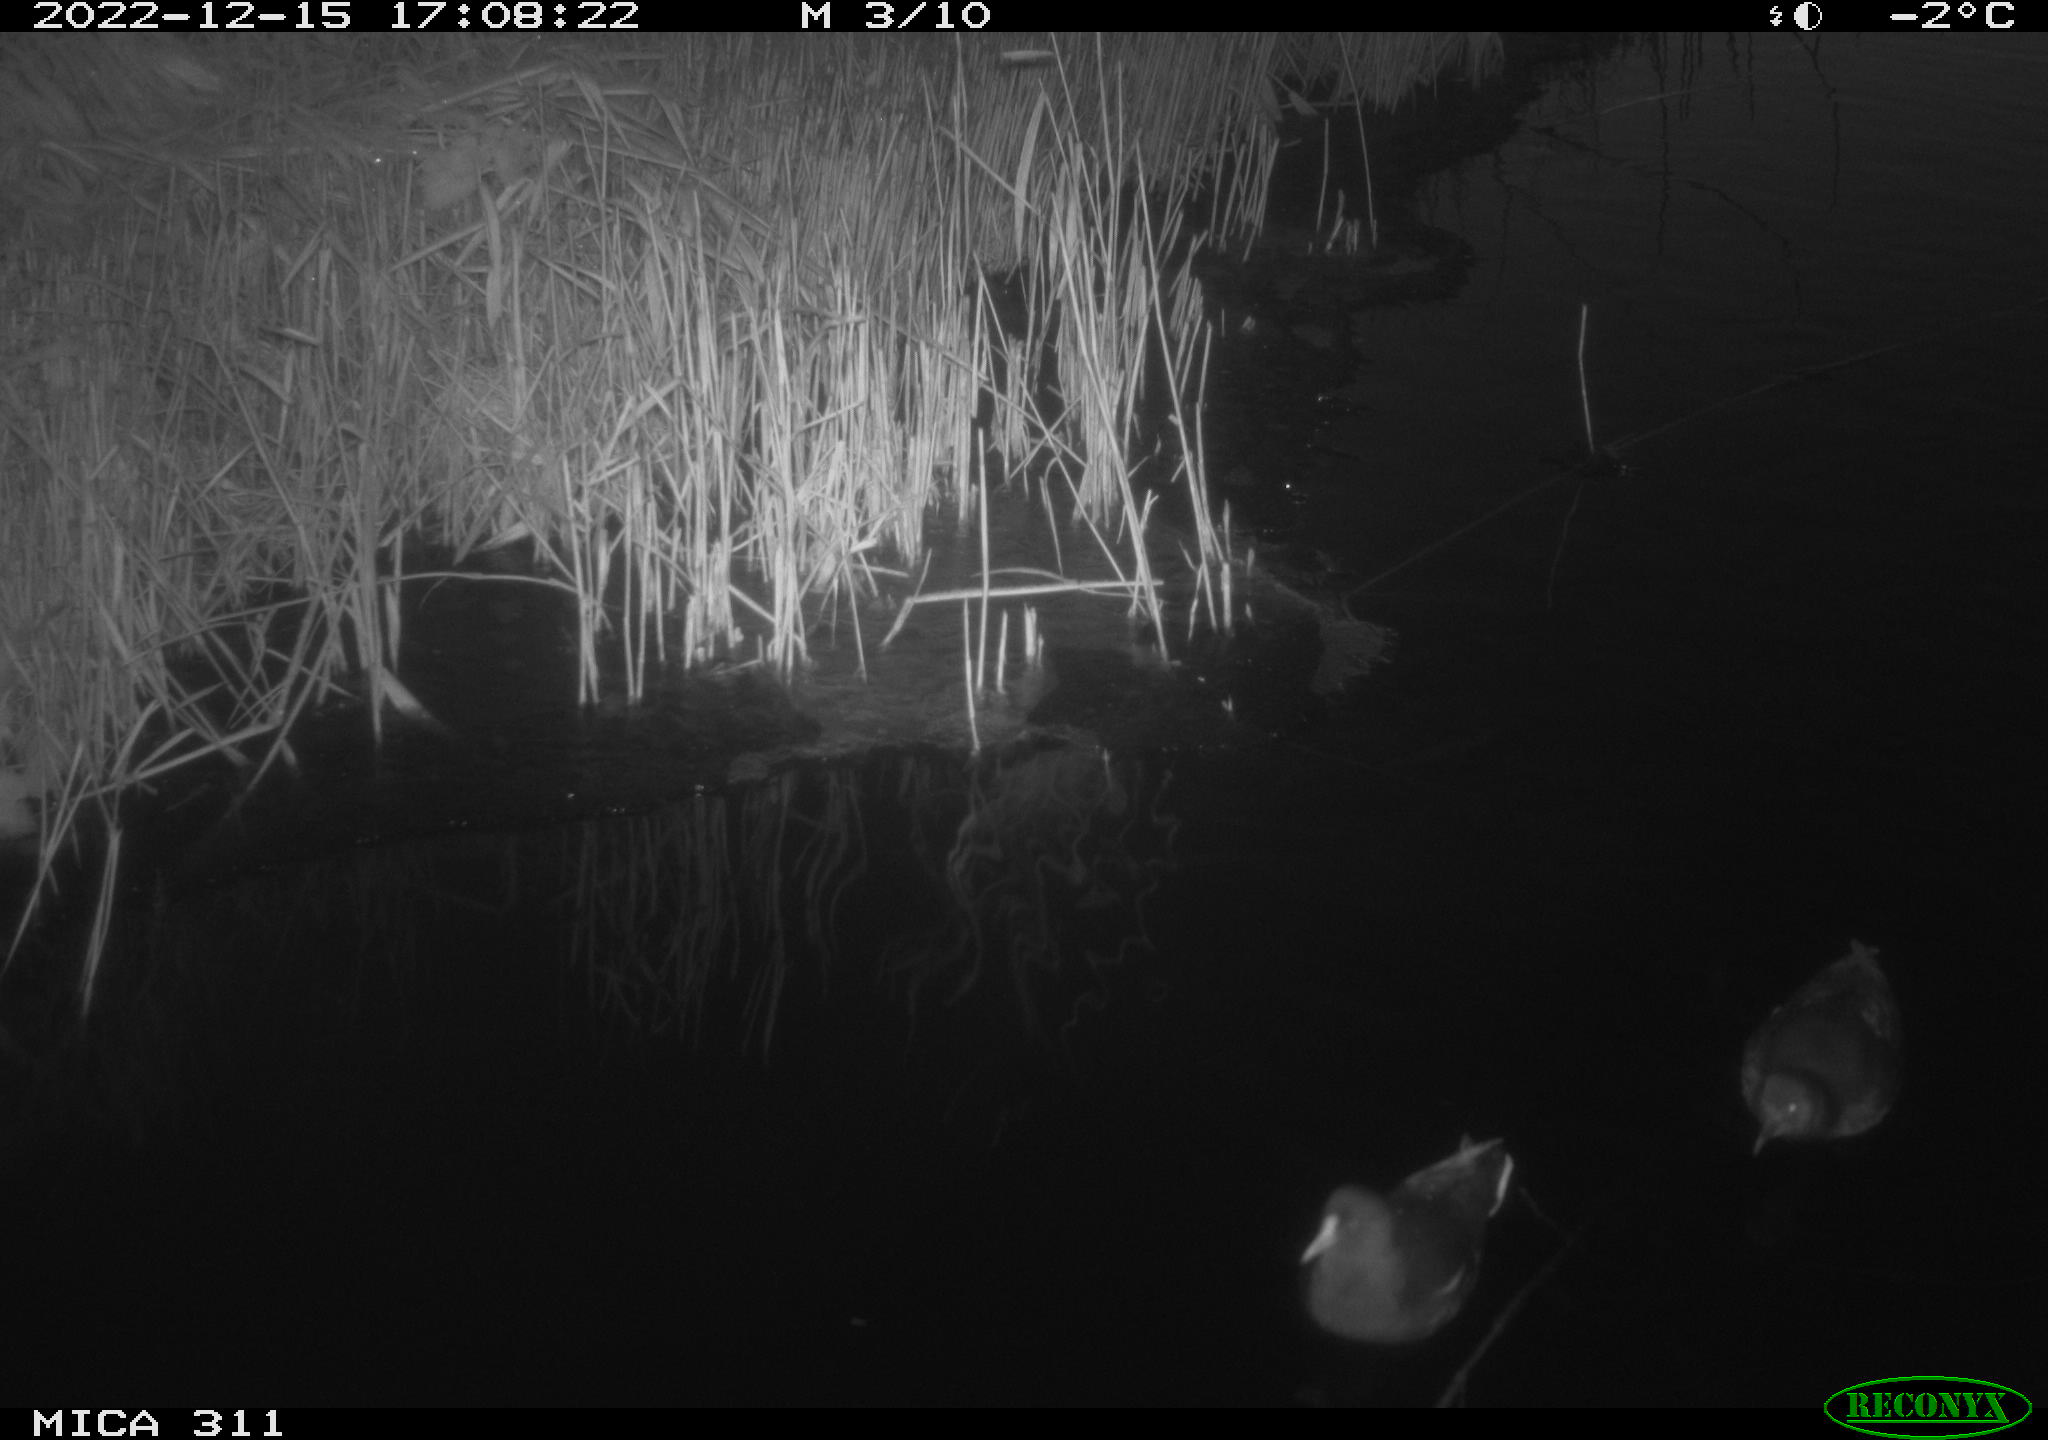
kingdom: Animalia
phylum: Chordata
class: Aves
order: Anseriformes
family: Anatidae
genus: Anas
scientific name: Anas
